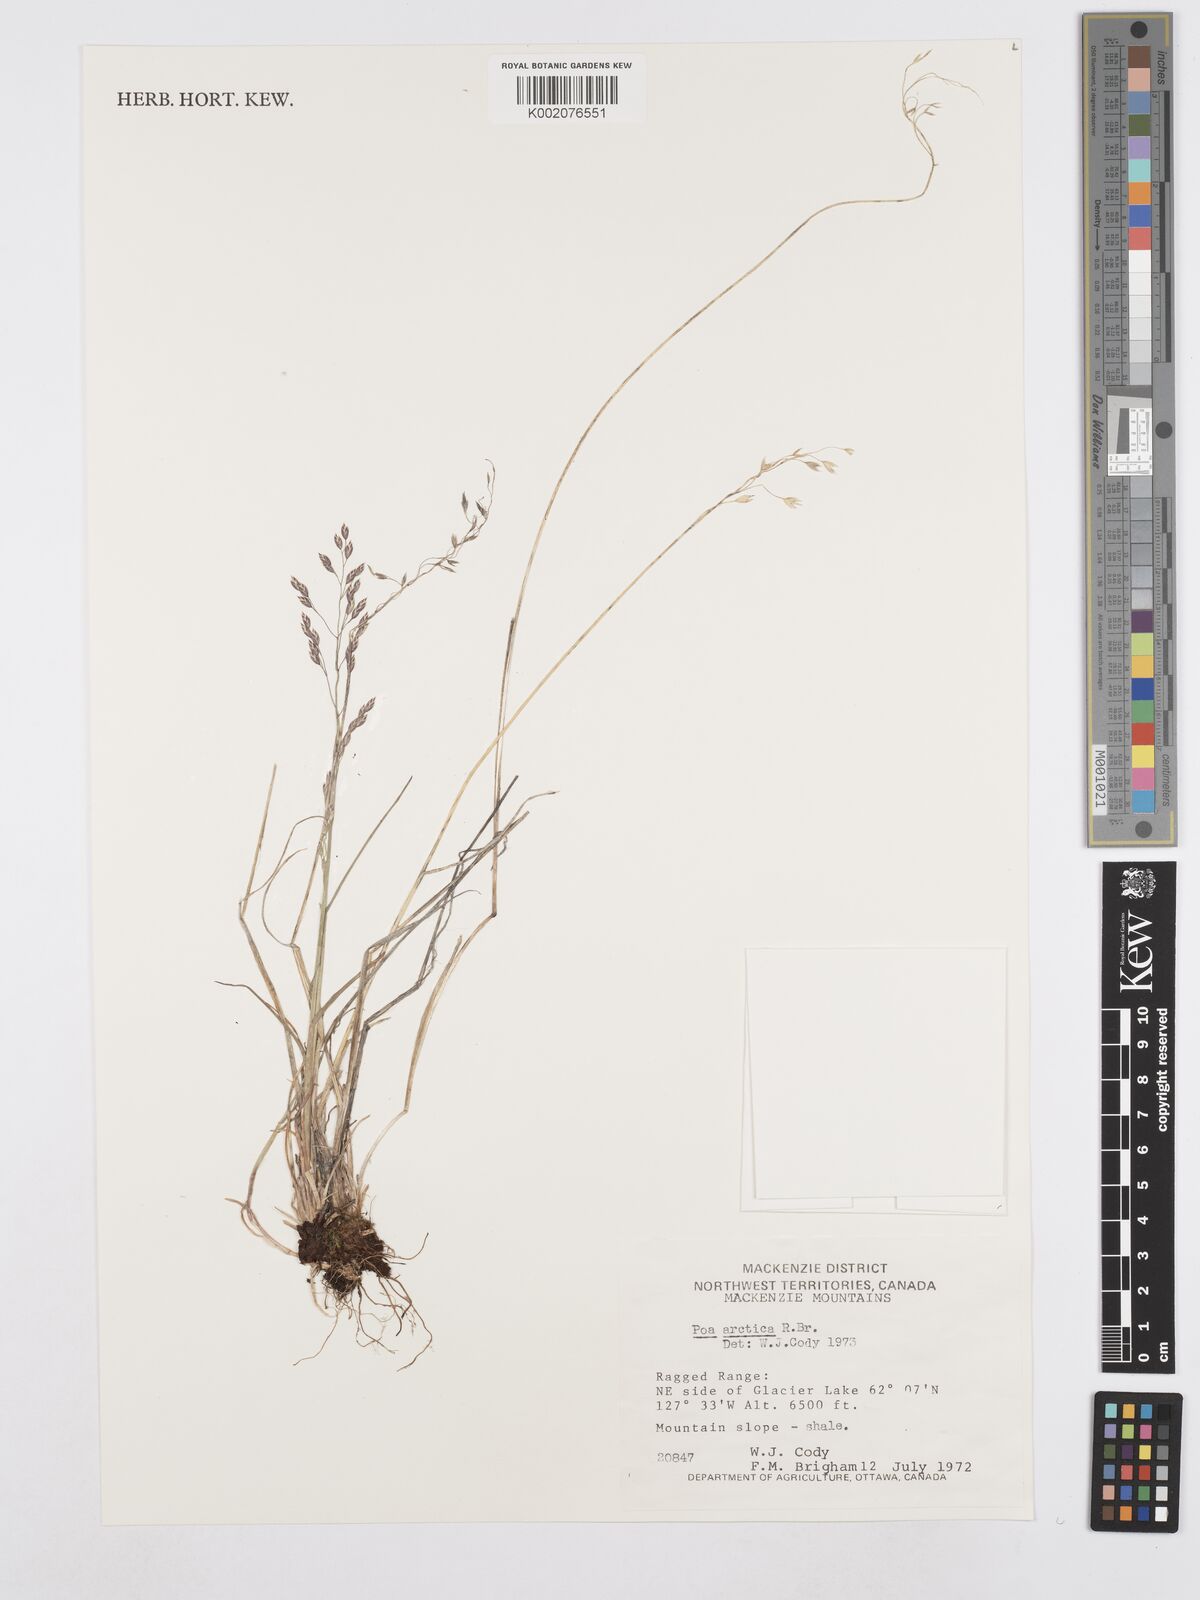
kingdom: Plantae
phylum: Tracheophyta
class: Liliopsida
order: Poales
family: Poaceae
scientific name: Poaceae
